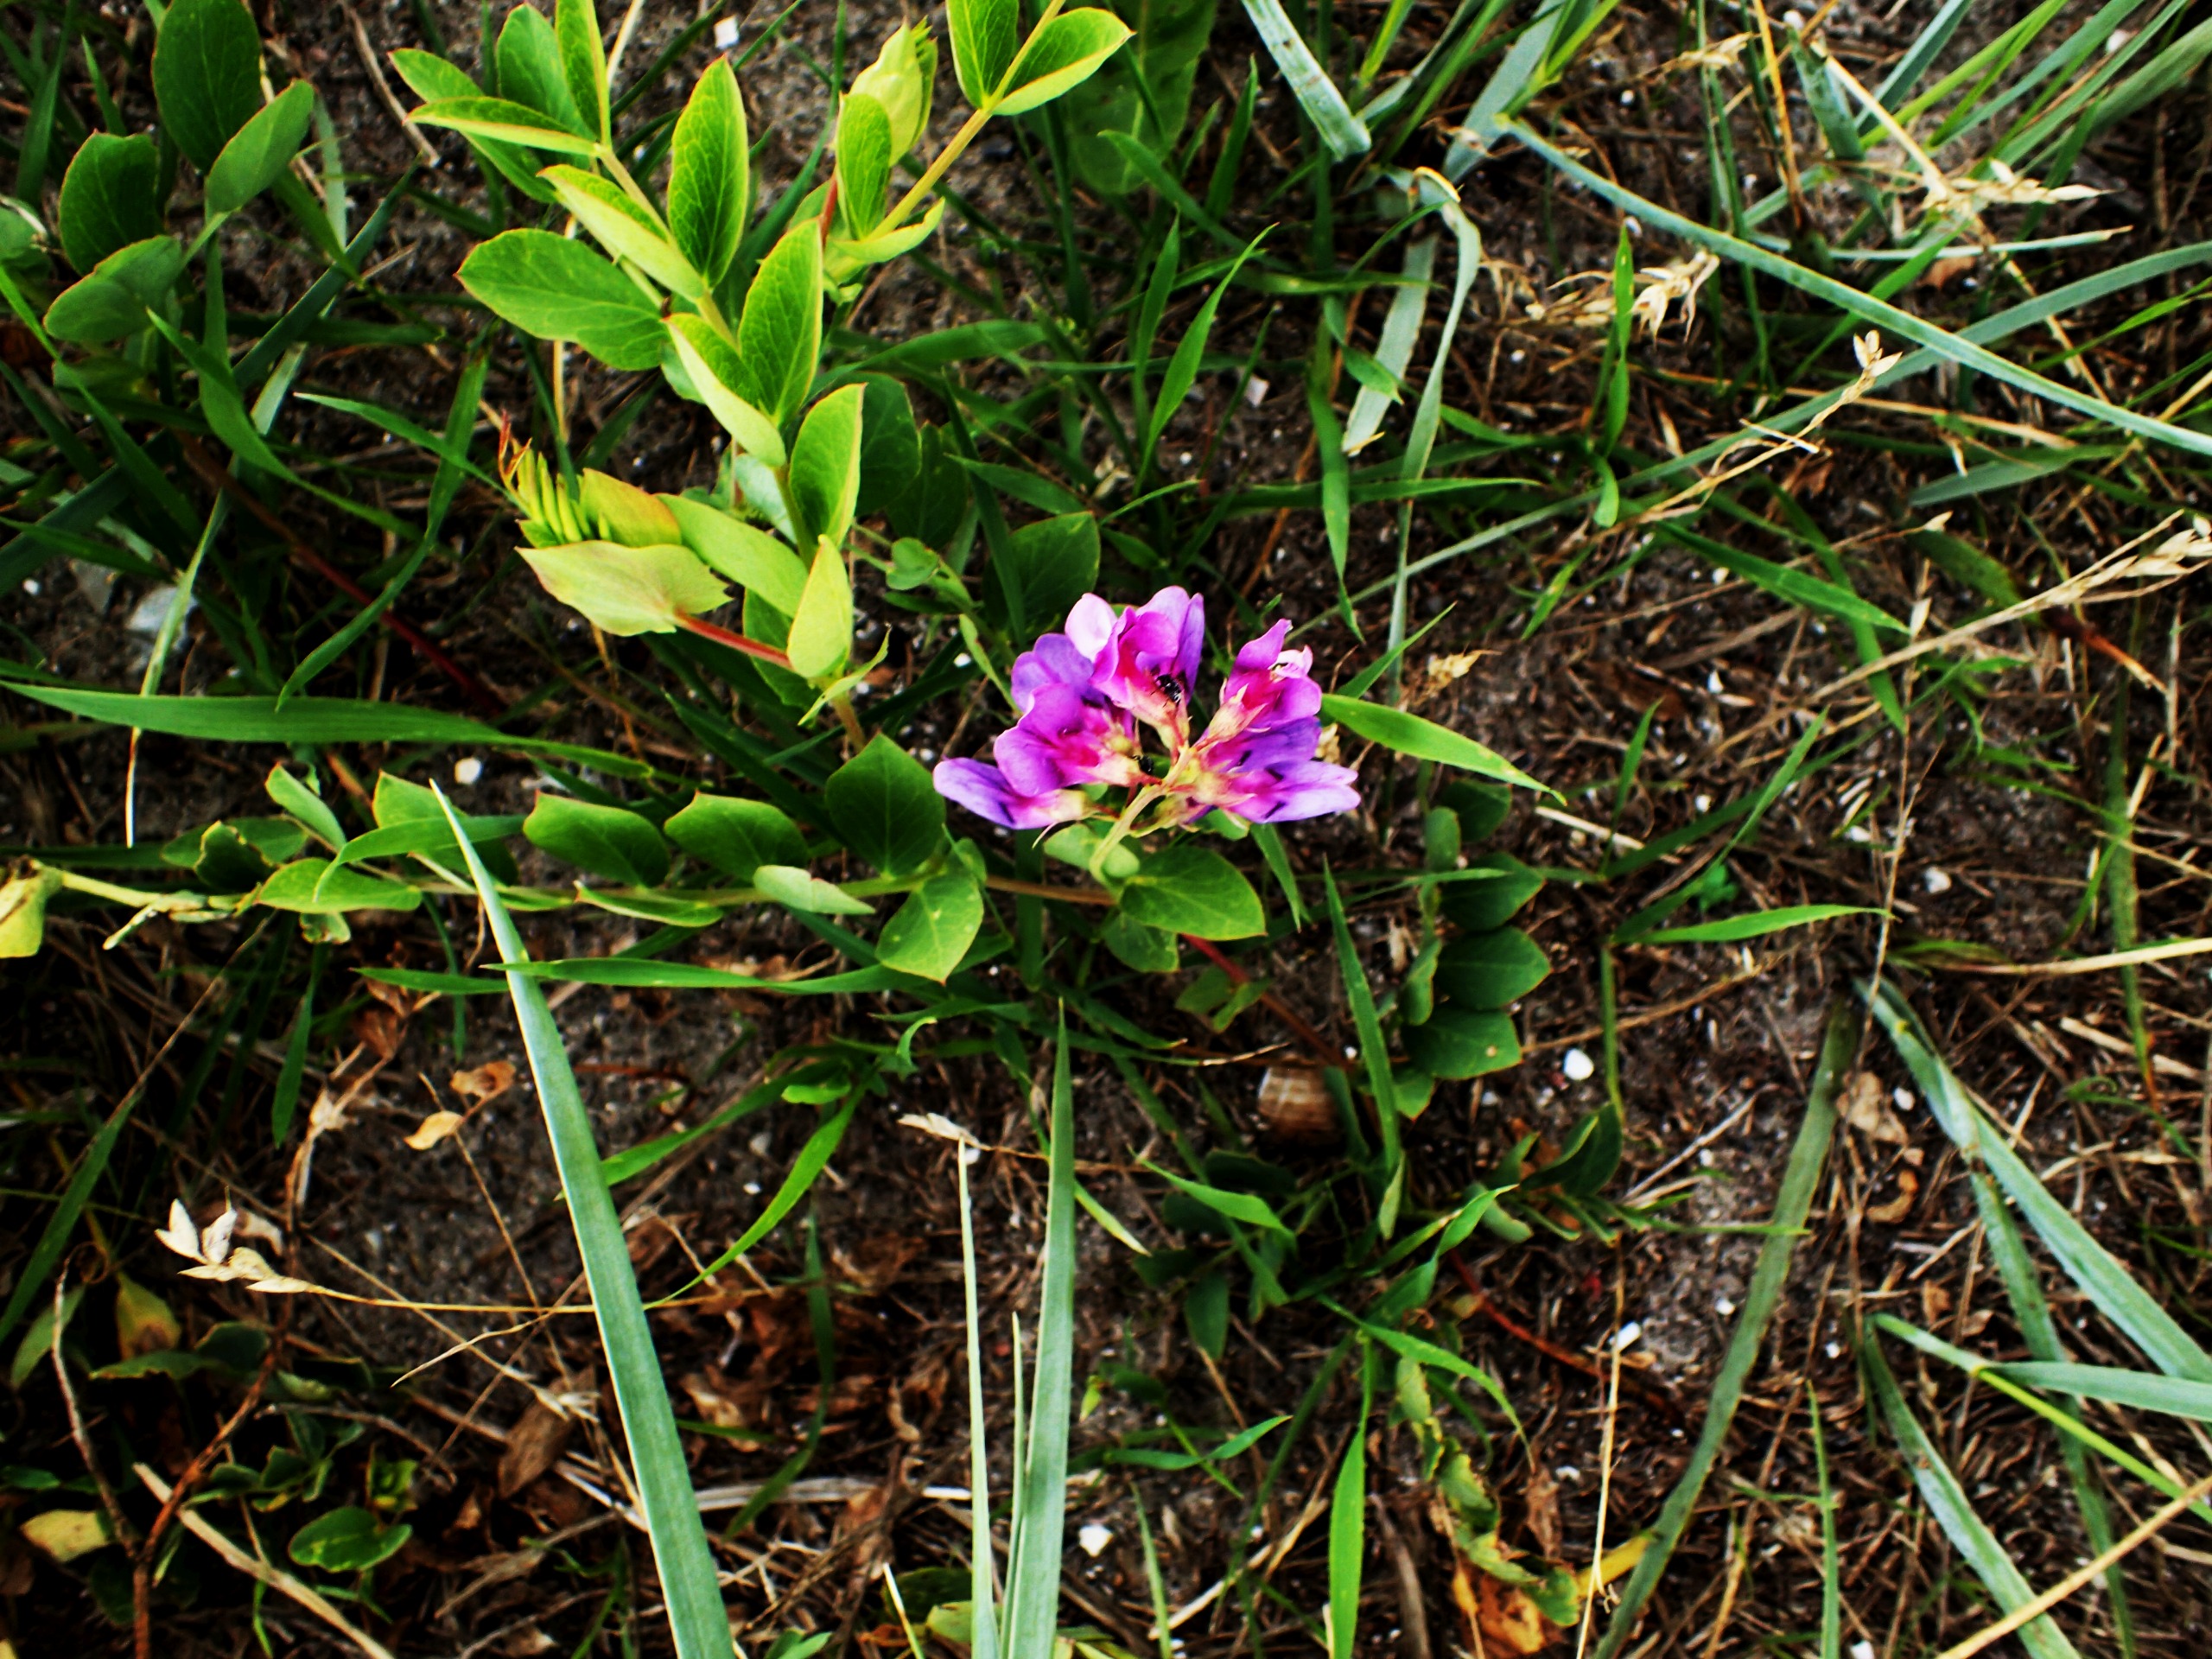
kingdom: Plantae
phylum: Tracheophyta
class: Magnoliopsida
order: Fabales
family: Fabaceae
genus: Lathyrus
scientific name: Lathyrus japonicus
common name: Strand-fladbælg
